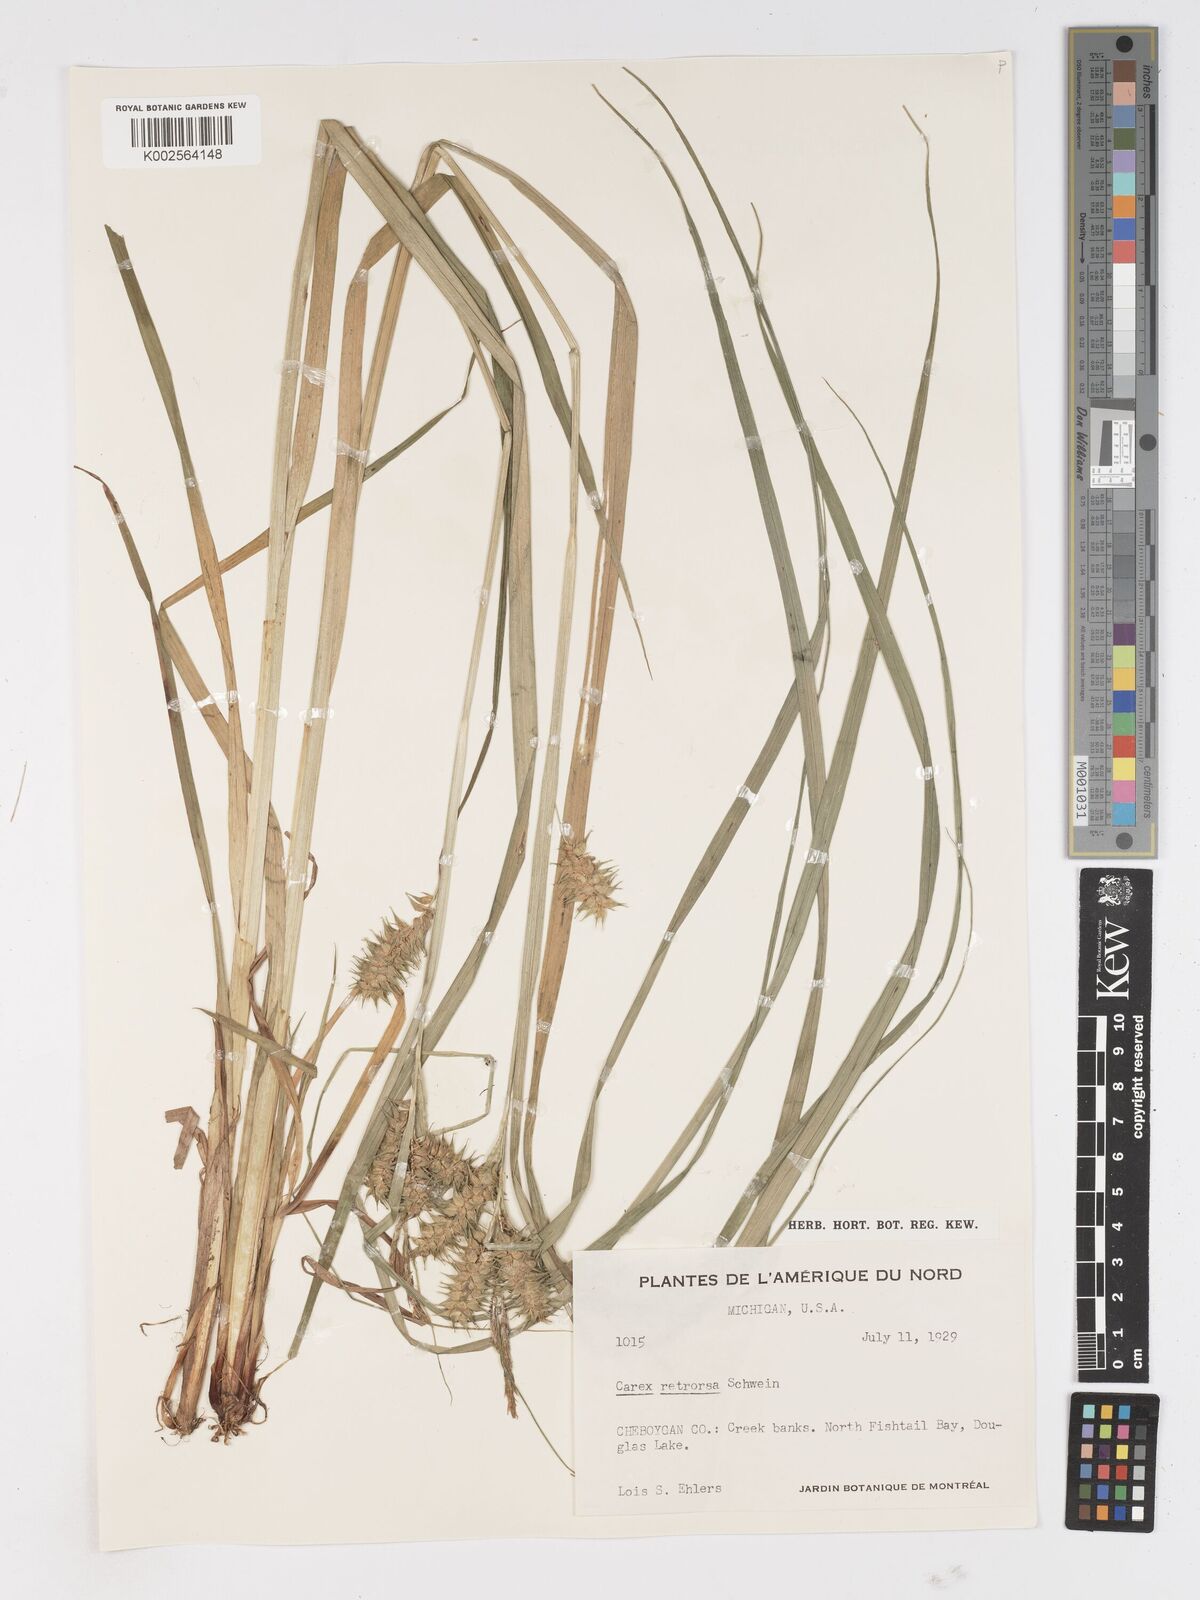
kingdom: Plantae
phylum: Tracheophyta
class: Liliopsida
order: Poales
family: Cyperaceae
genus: Carex
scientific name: Carex retrorsa
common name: Knot-sheath sedge
